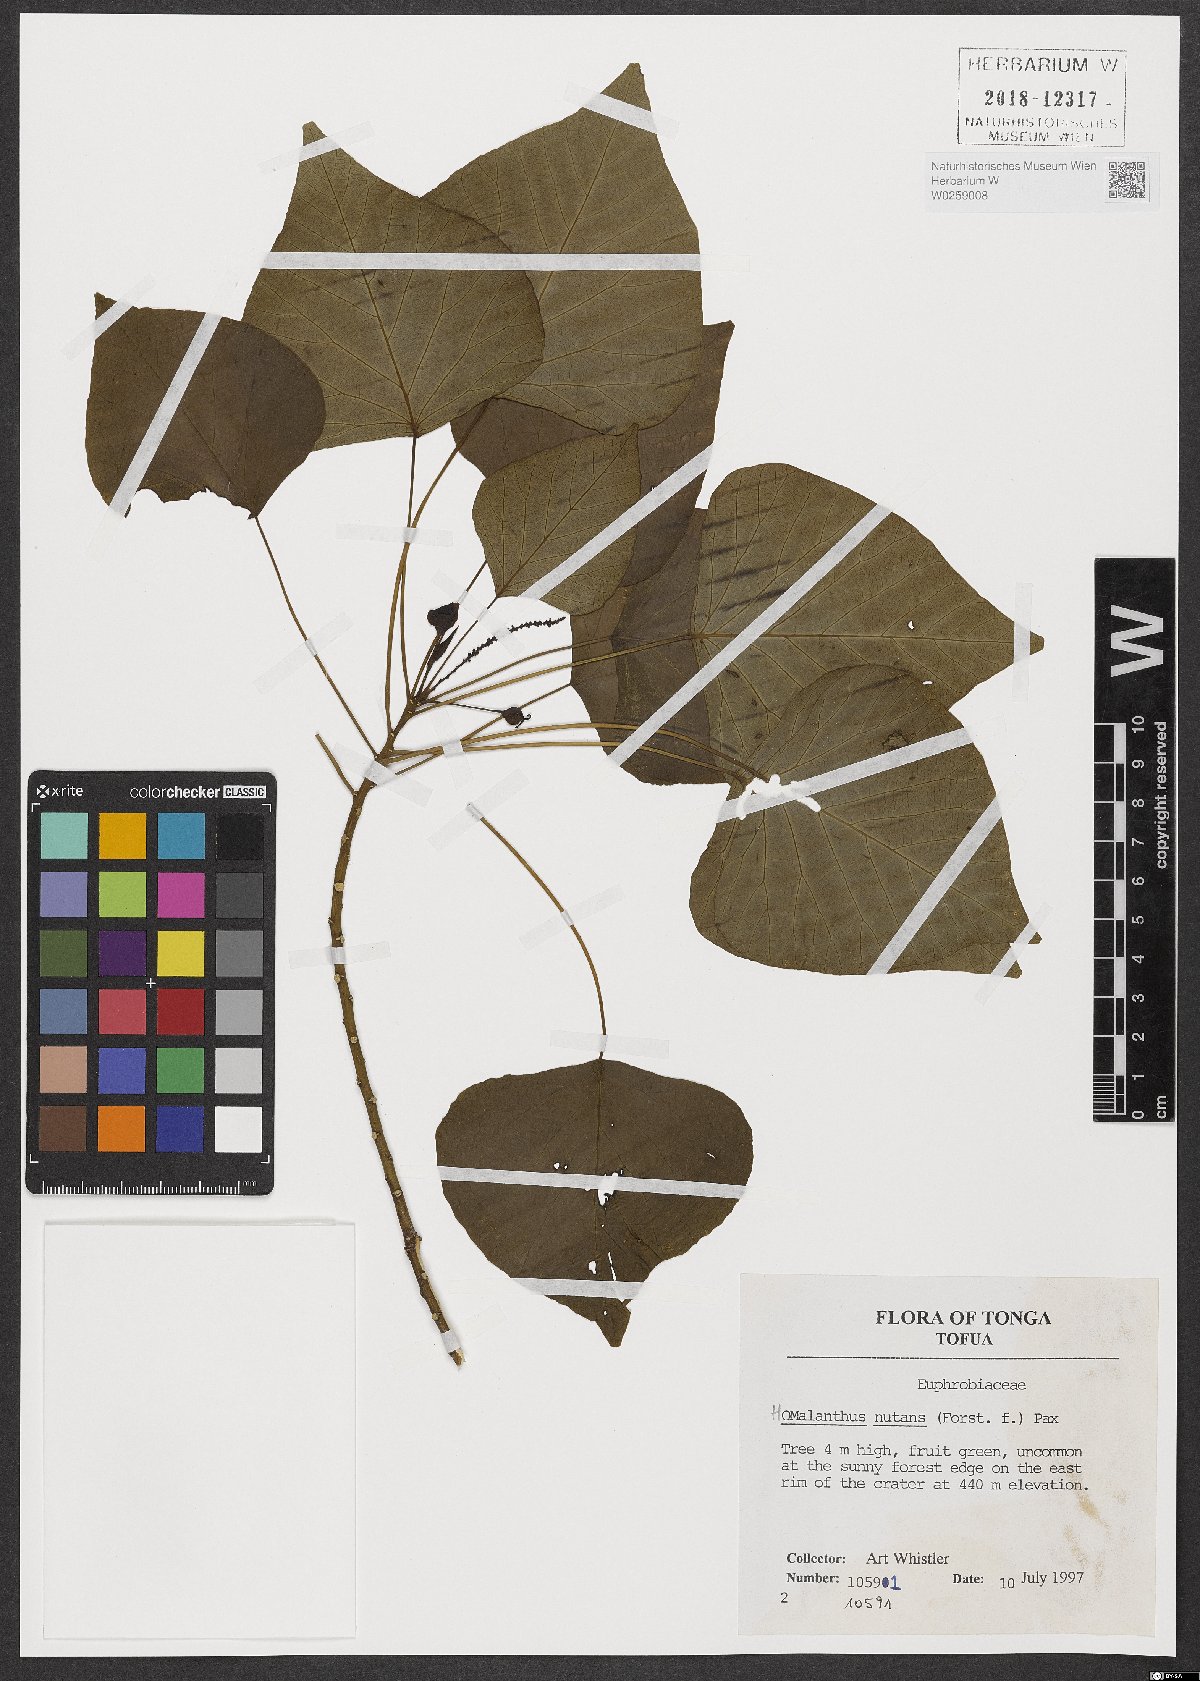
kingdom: Plantae
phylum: Tracheophyta
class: Magnoliopsida
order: Malpighiales
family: Euphorbiaceae
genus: Homalanthus
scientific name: Homalanthus nutans
